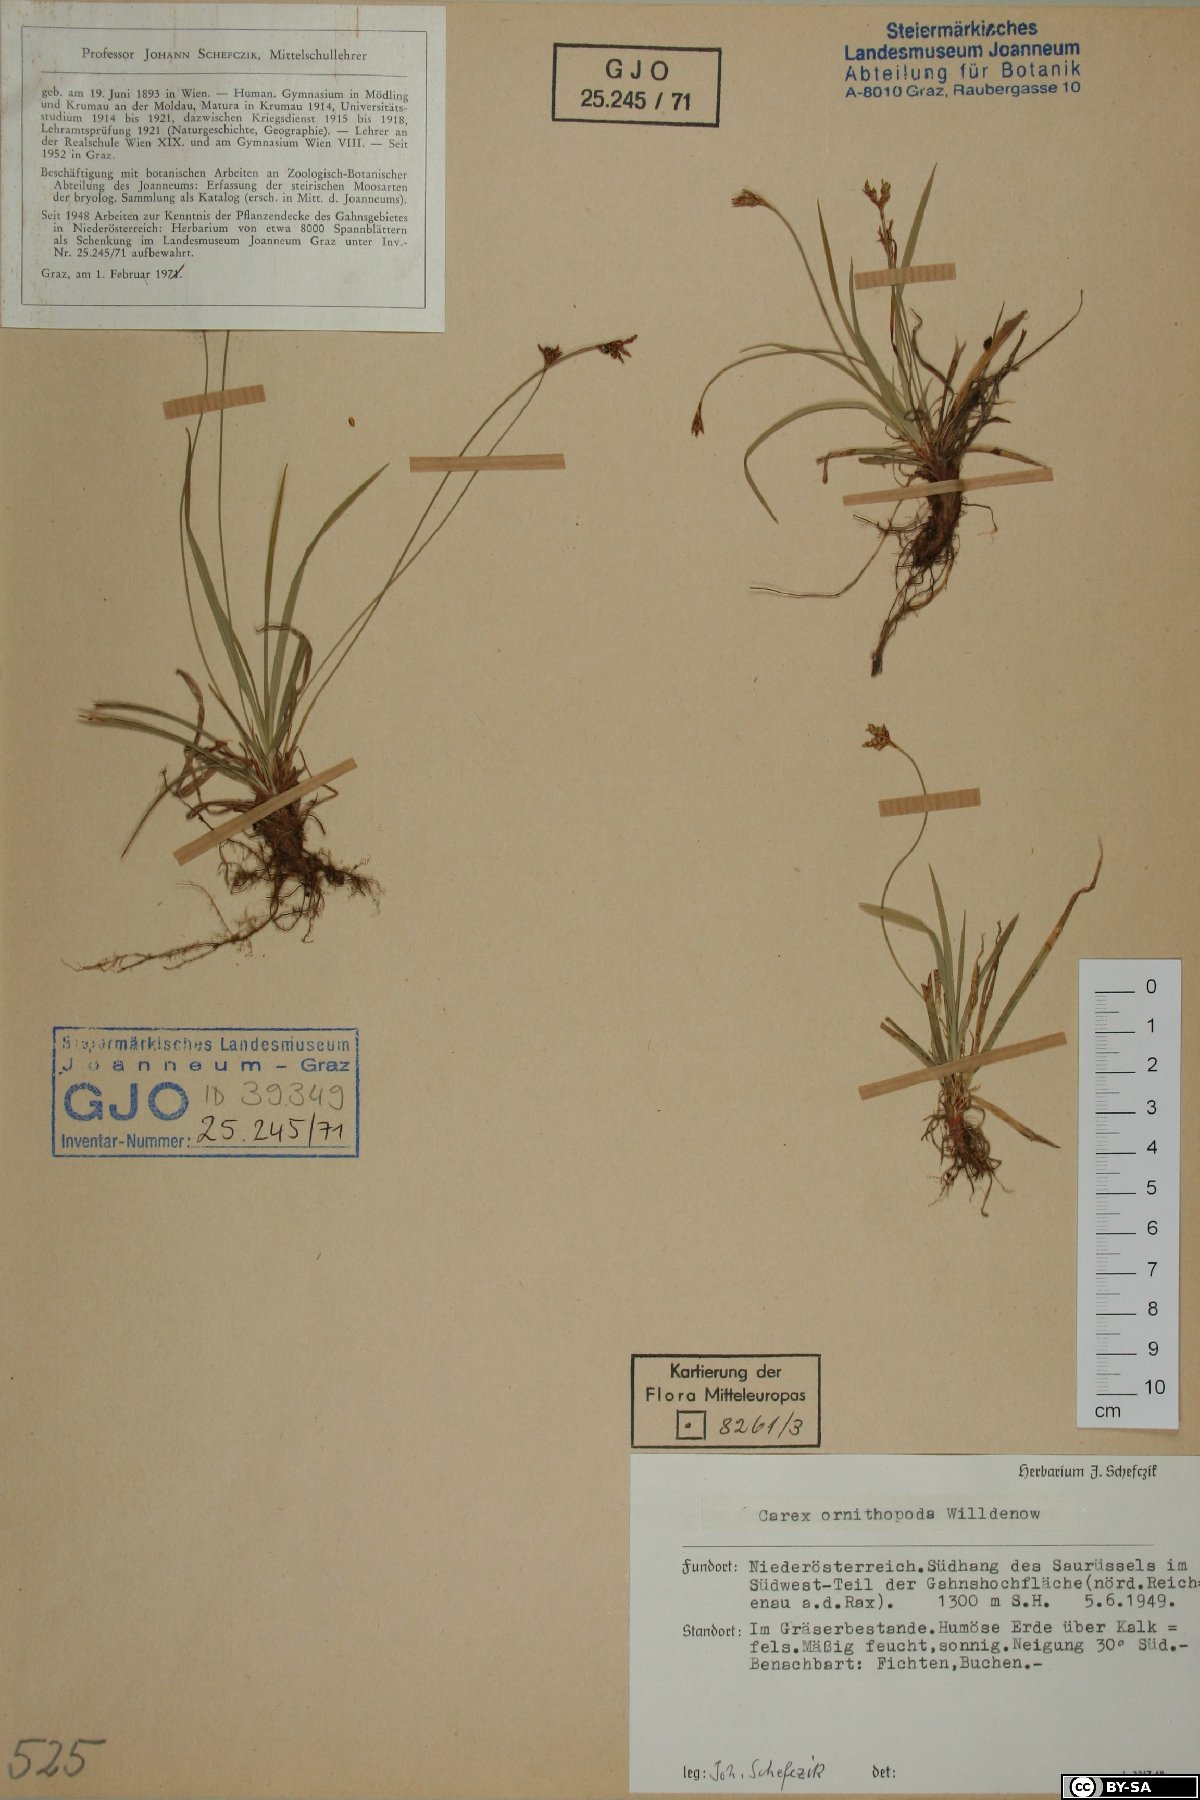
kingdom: Plantae
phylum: Tracheophyta
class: Liliopsida
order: Poales
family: Cyperaceae
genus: Carex
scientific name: Carex ornithopoda
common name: Bird's-foot sedge
